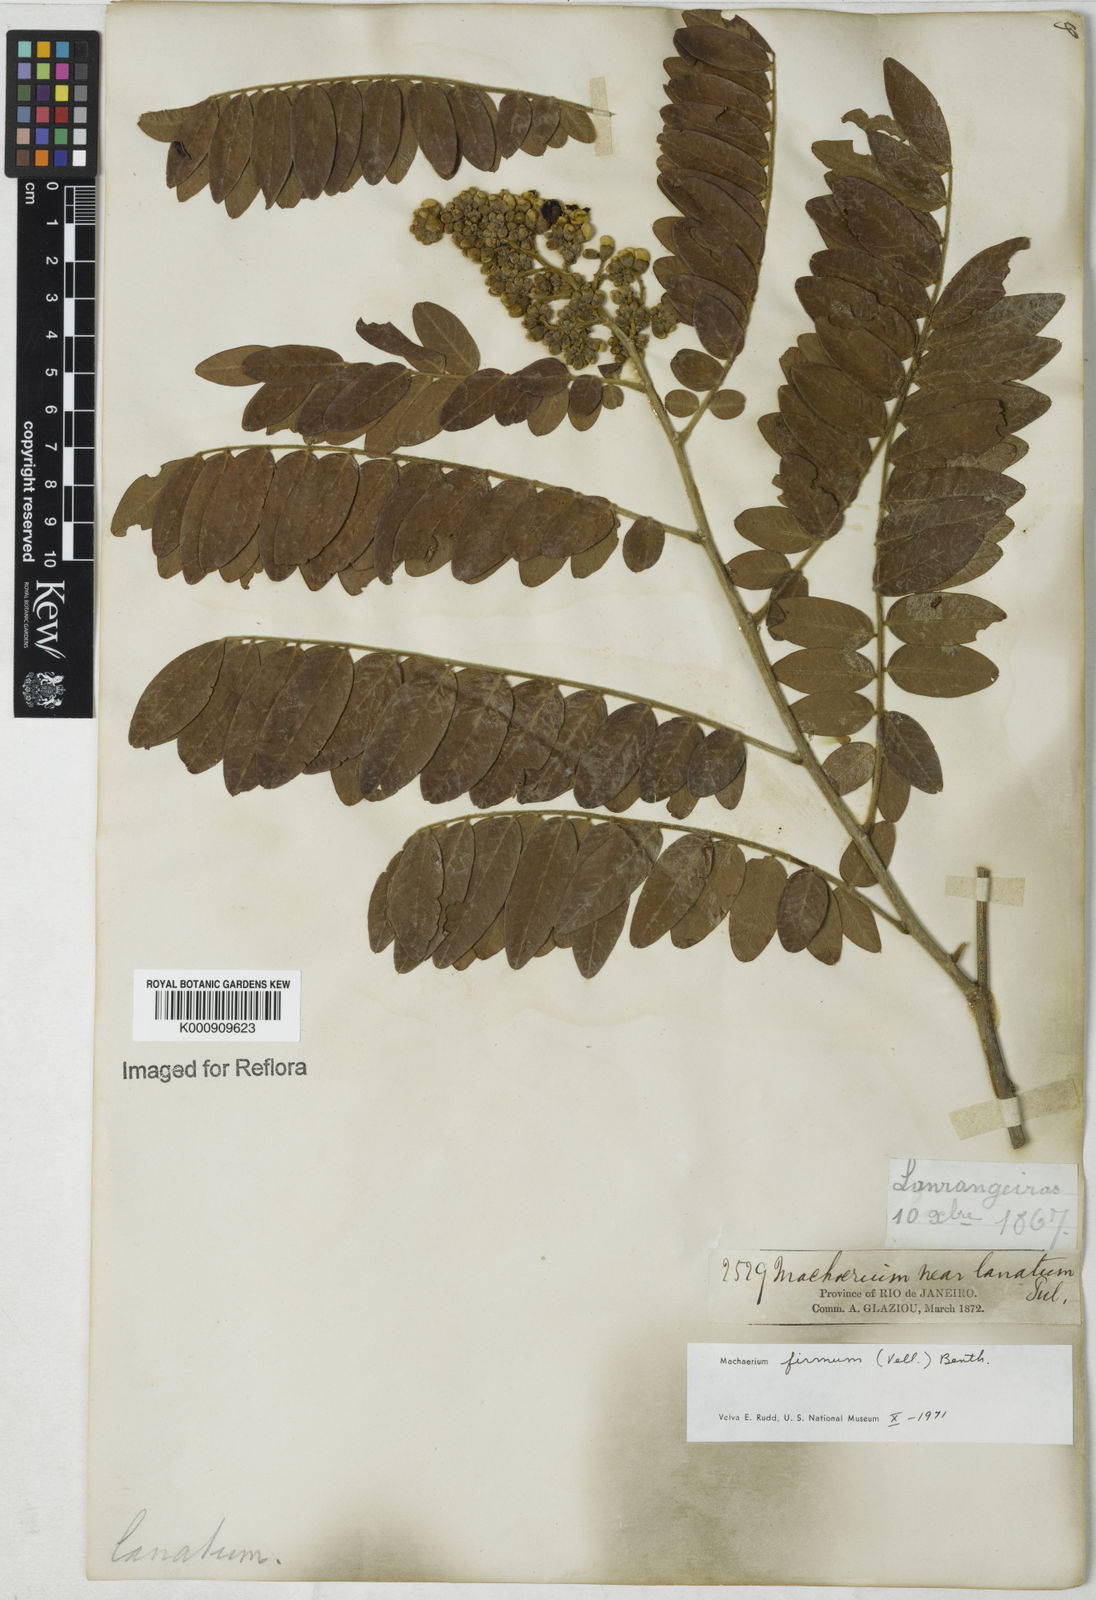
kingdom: Plantae
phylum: Tracheophyta
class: Magnoliopsida
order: Fabales
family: Fabaceae
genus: Machaerium
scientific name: Machaerium firmum
